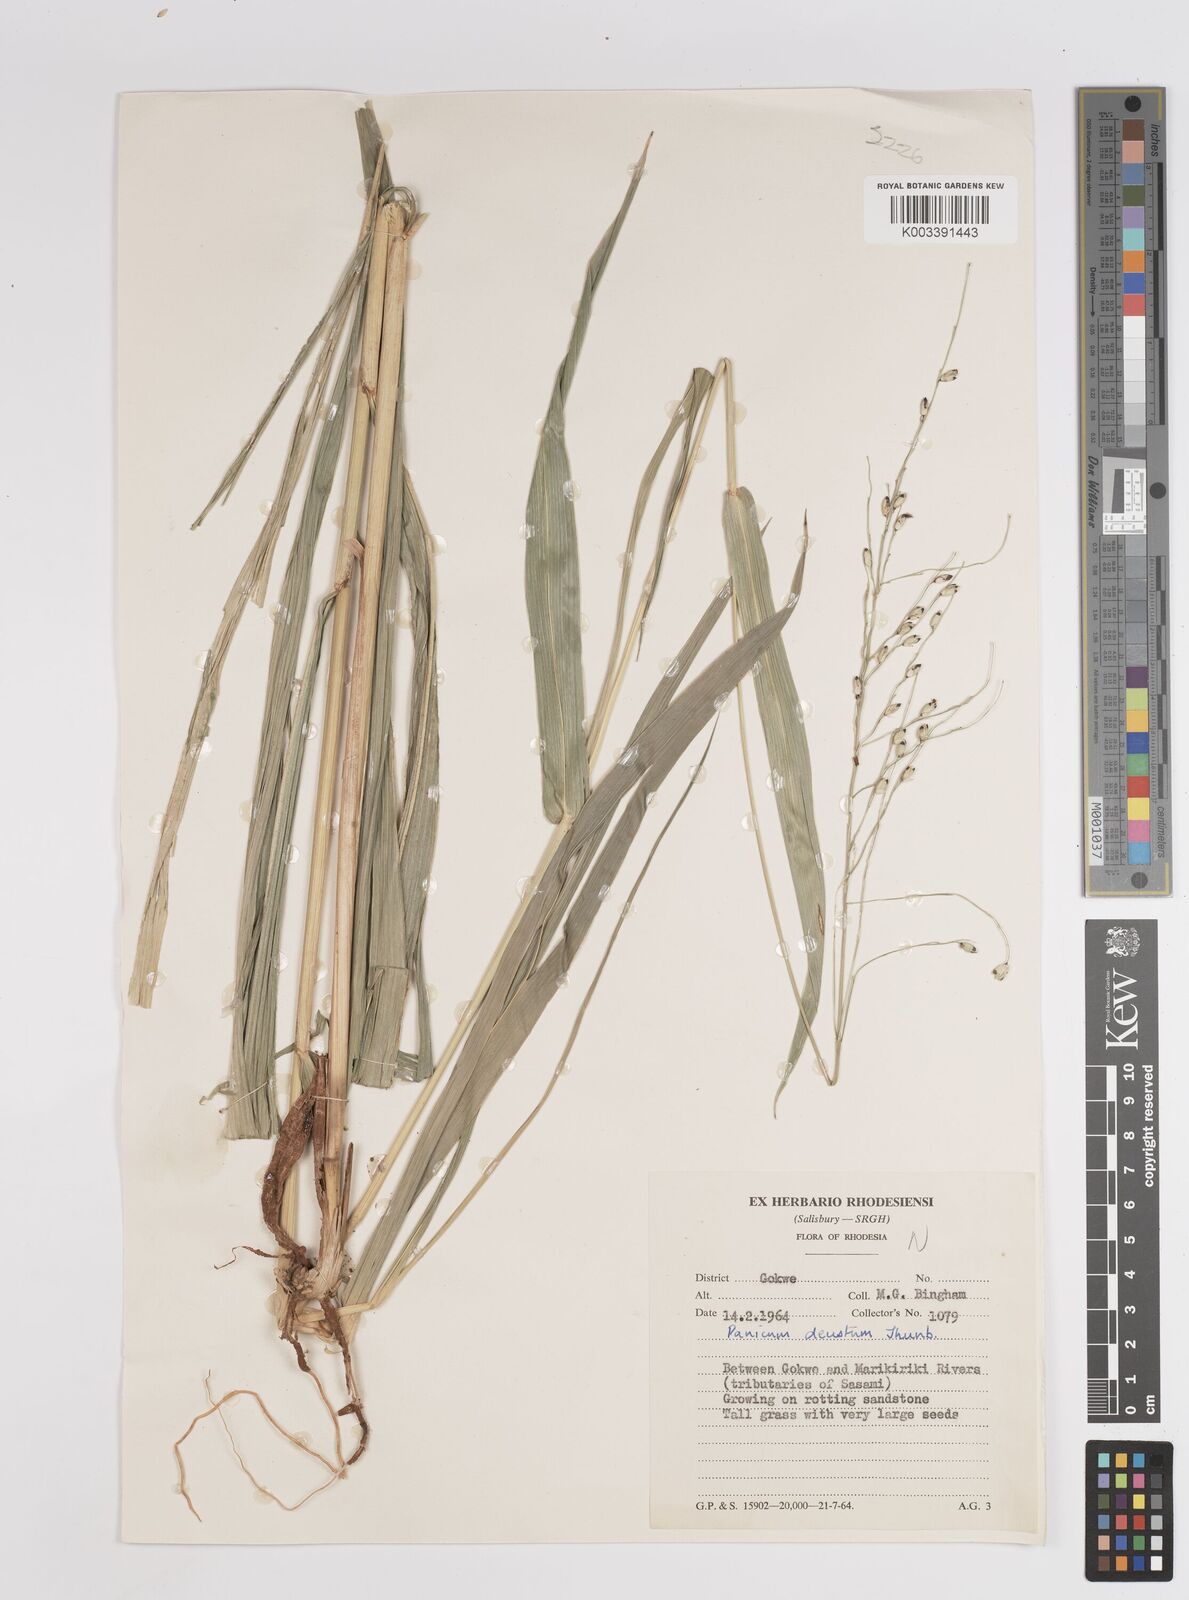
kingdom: Plantae
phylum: Tracheophyta
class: Liliopsida
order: Poales
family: Poaceae
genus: Panicum
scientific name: Panicum deustum
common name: Reed panicum
